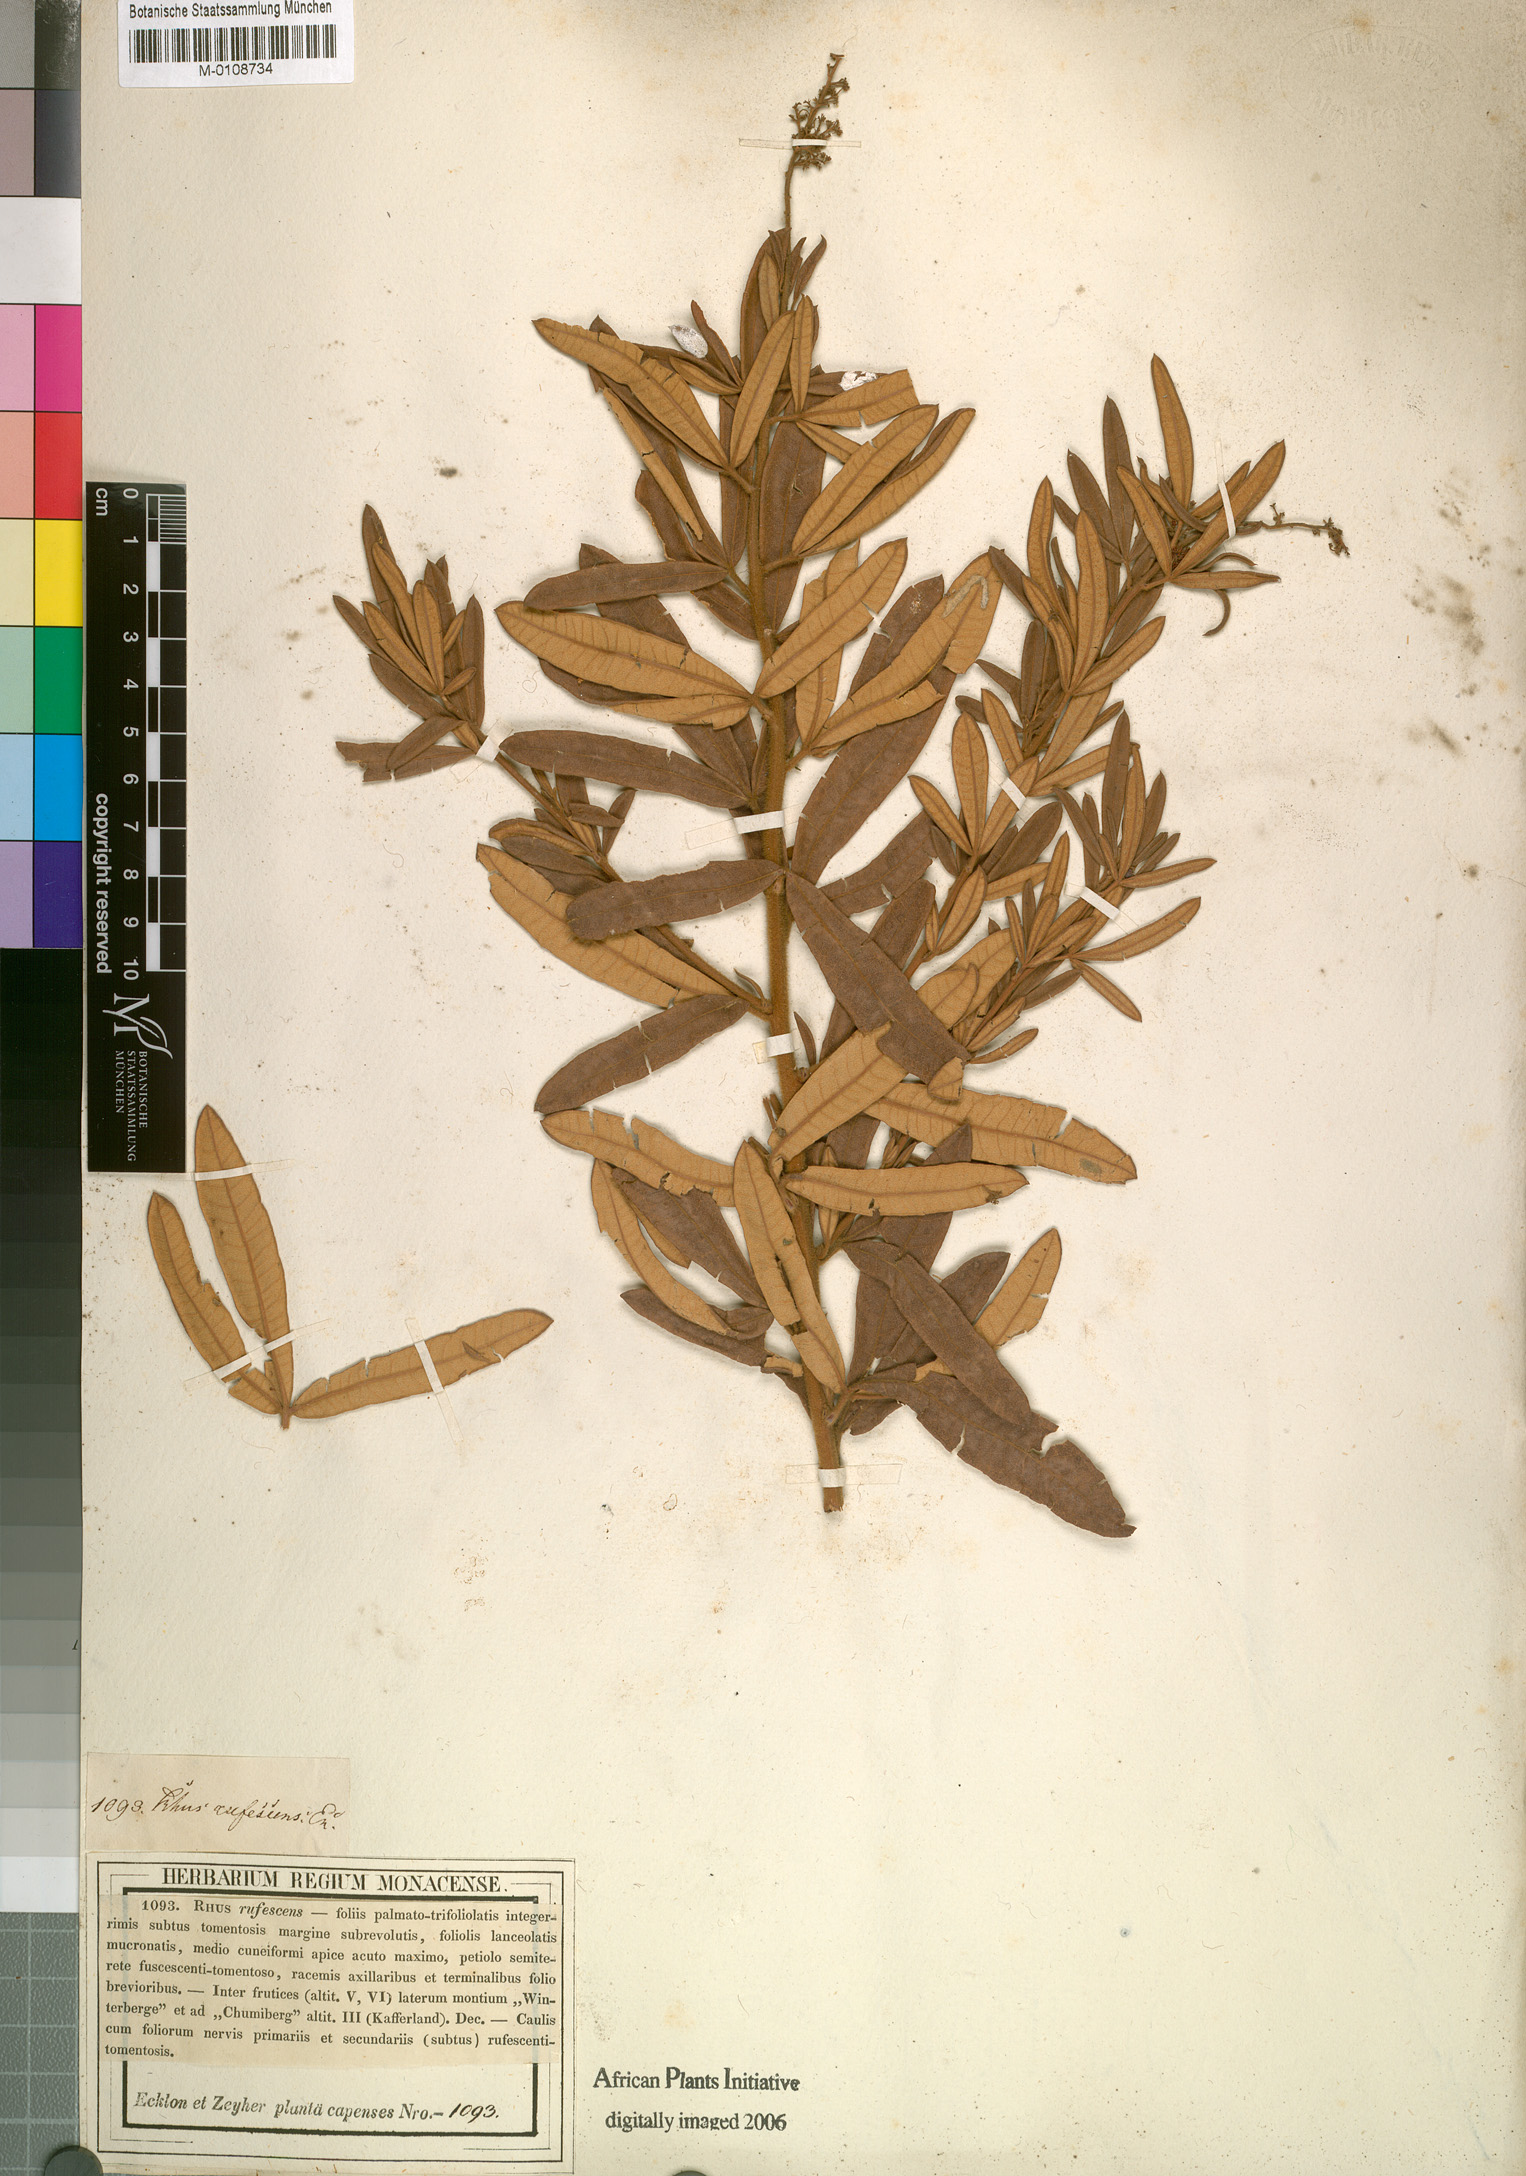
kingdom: Plantae
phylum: Tracheophyta
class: Magnoliopsida
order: Sapindales
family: Anacardiaceae
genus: Searsia
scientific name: Searsia discolor
